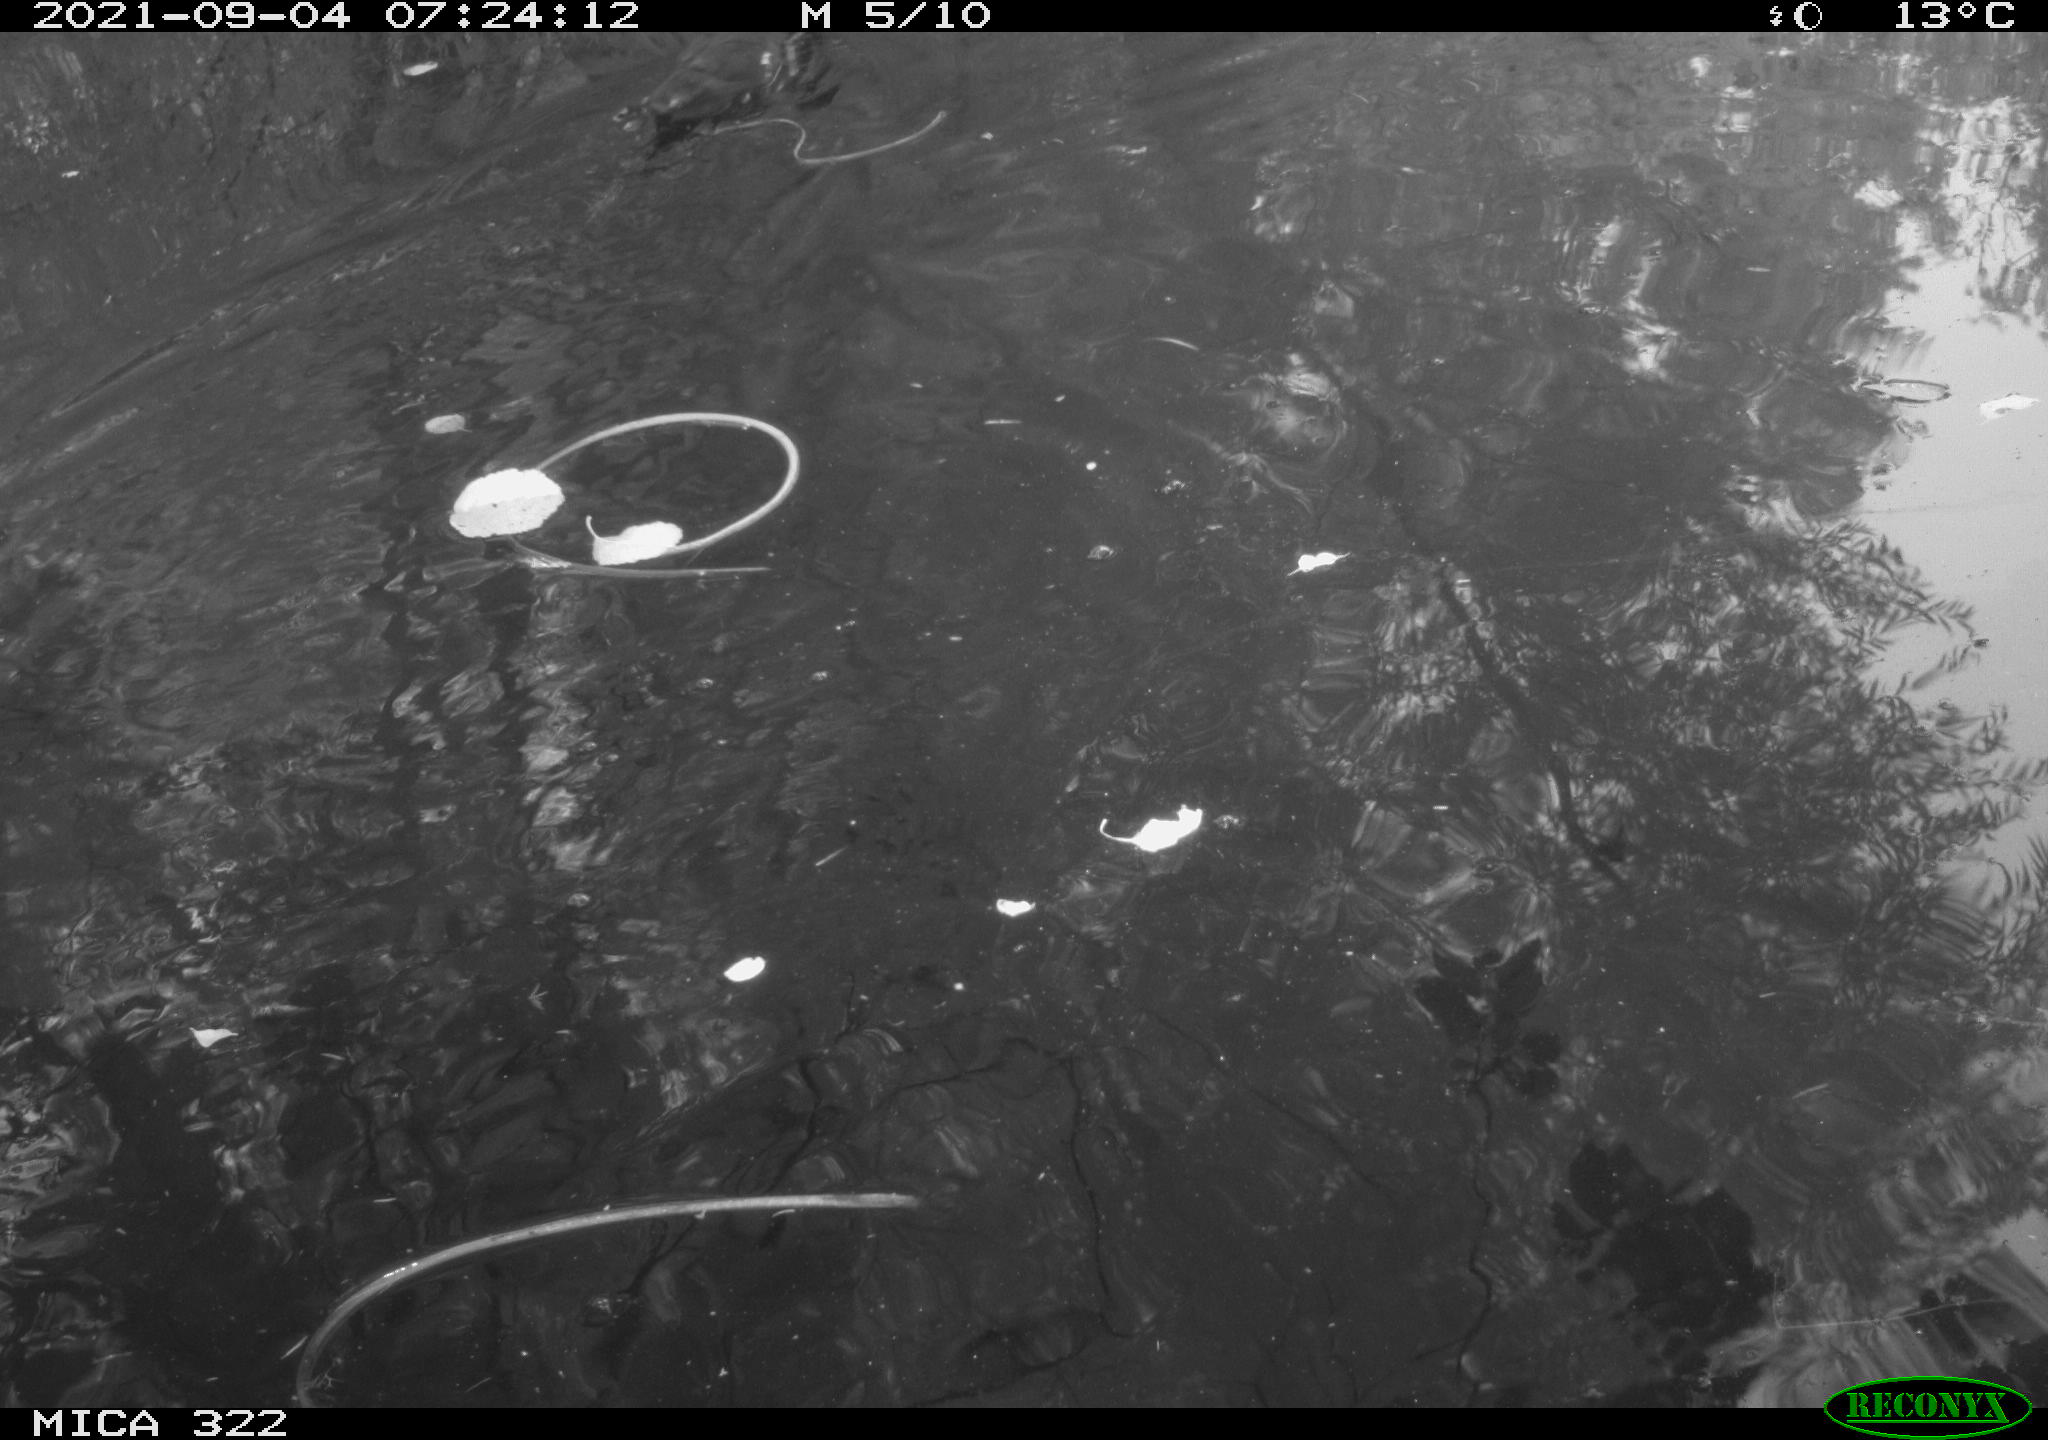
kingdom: Animalia
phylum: Chordata
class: Aves
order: Gruiformes
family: Rallidae
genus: Gallinula
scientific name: Gallinula chloropus
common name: Common moorhen
